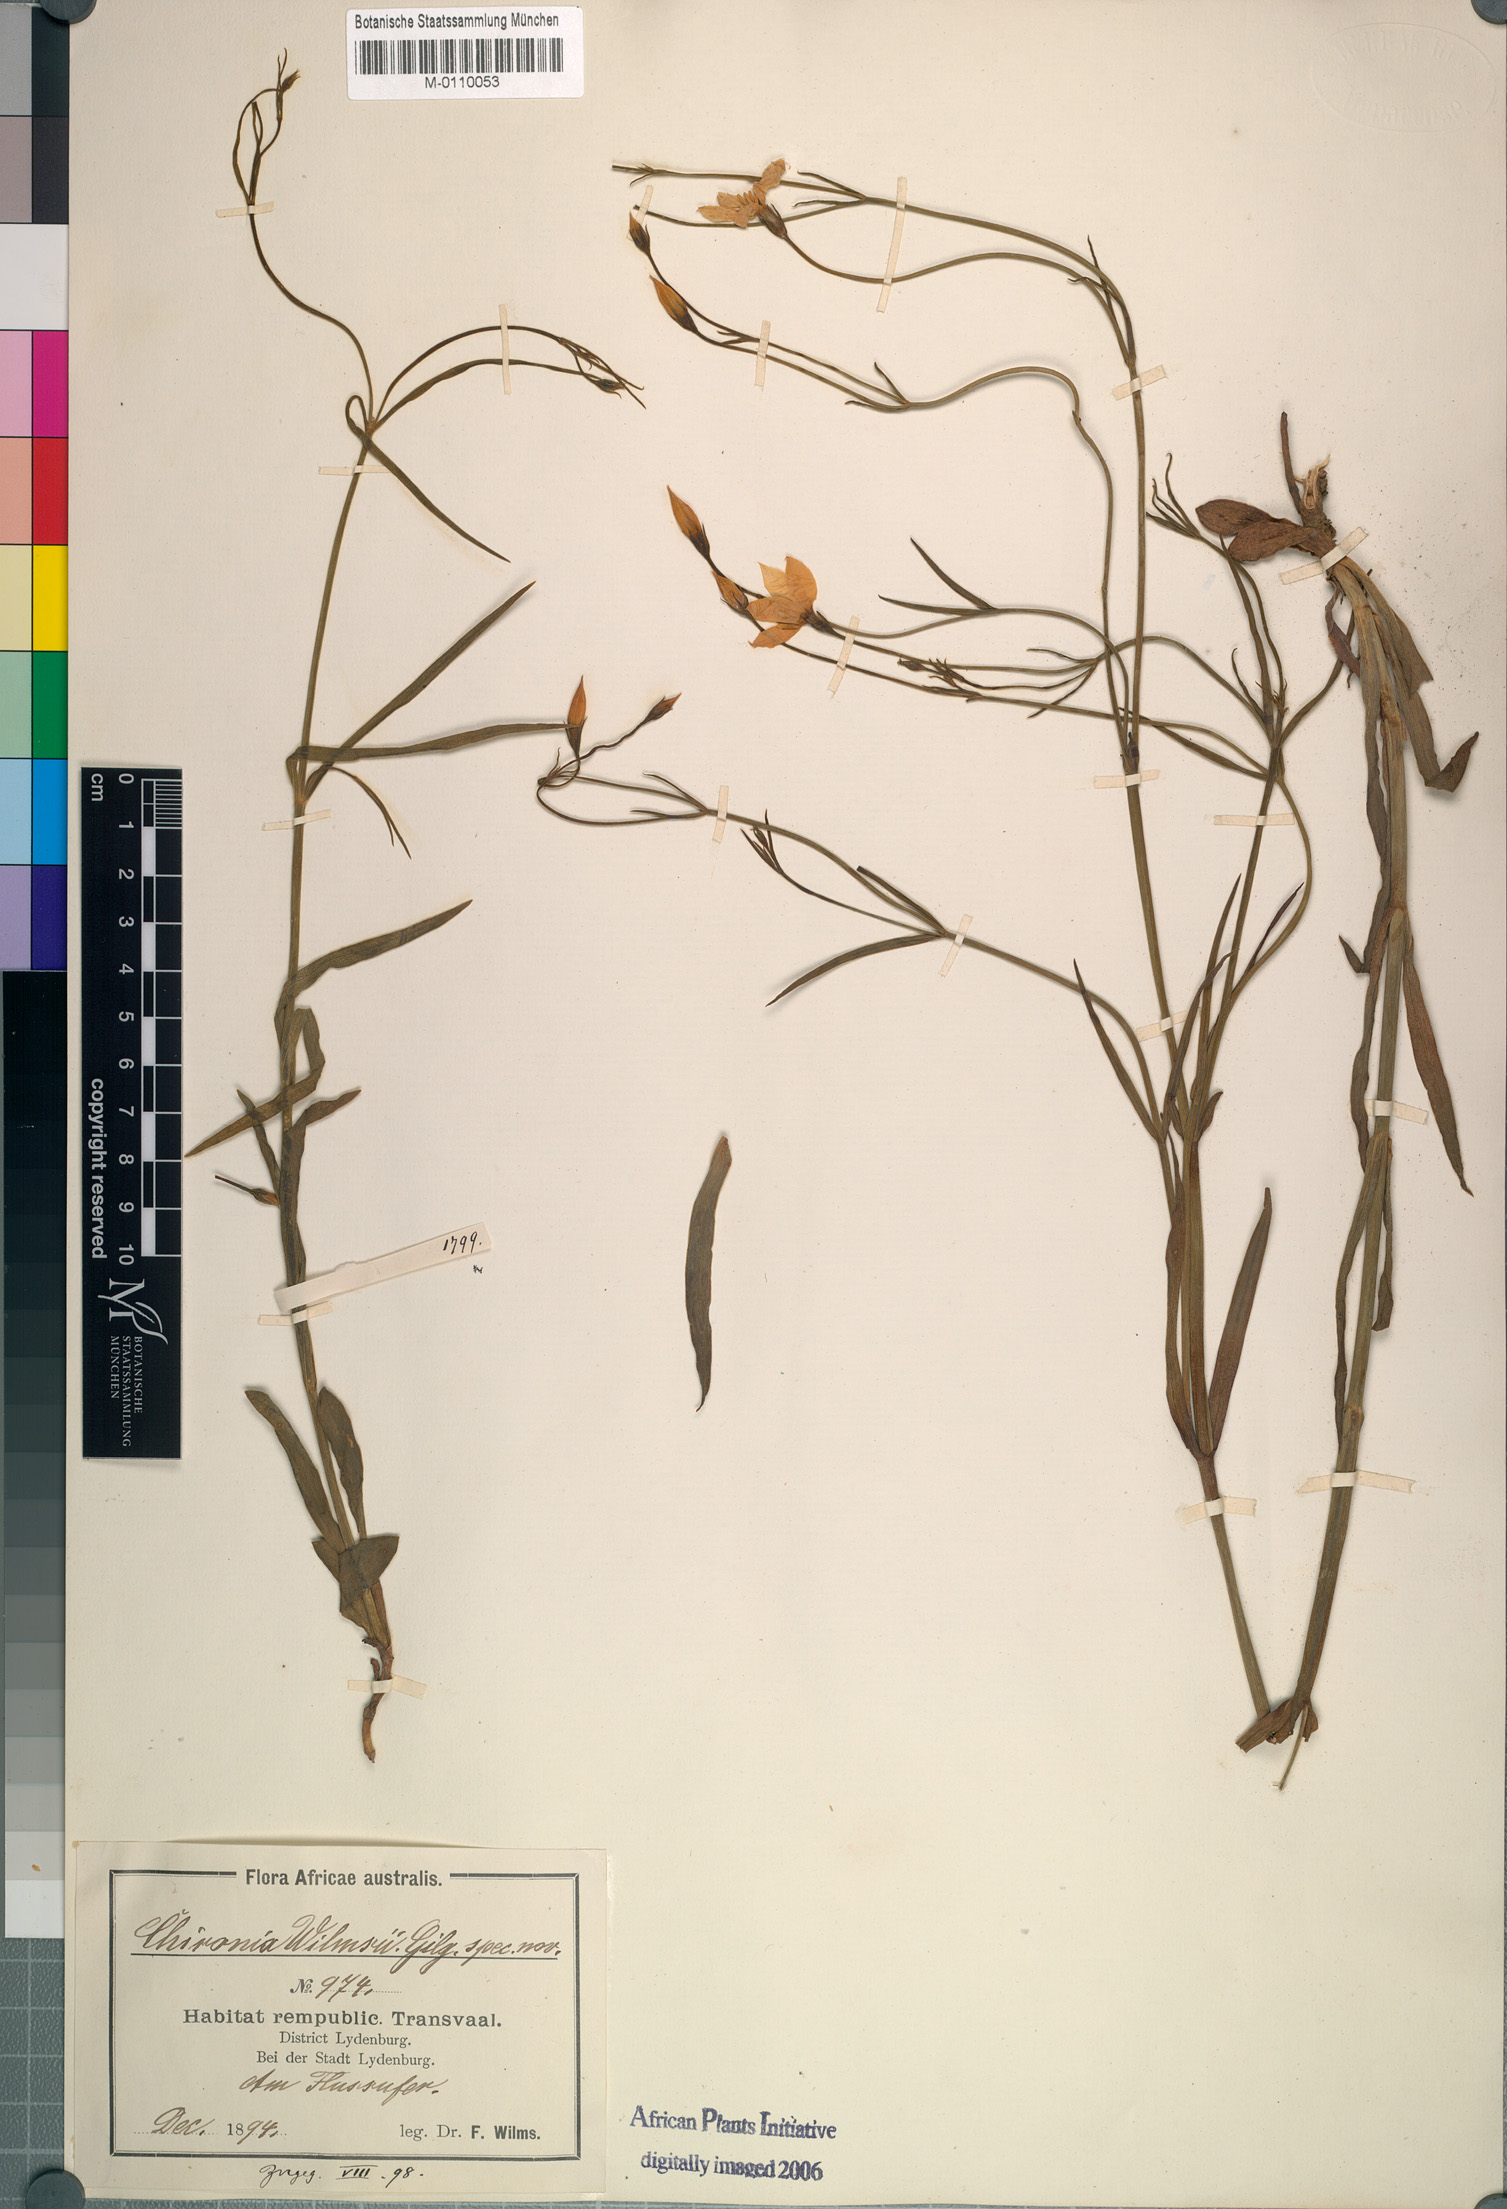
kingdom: Plantae
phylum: Tracheophyta
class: Magnoliopsida
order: Gentianales
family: Gentianaceae
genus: Chironia
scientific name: Chironia palustris
